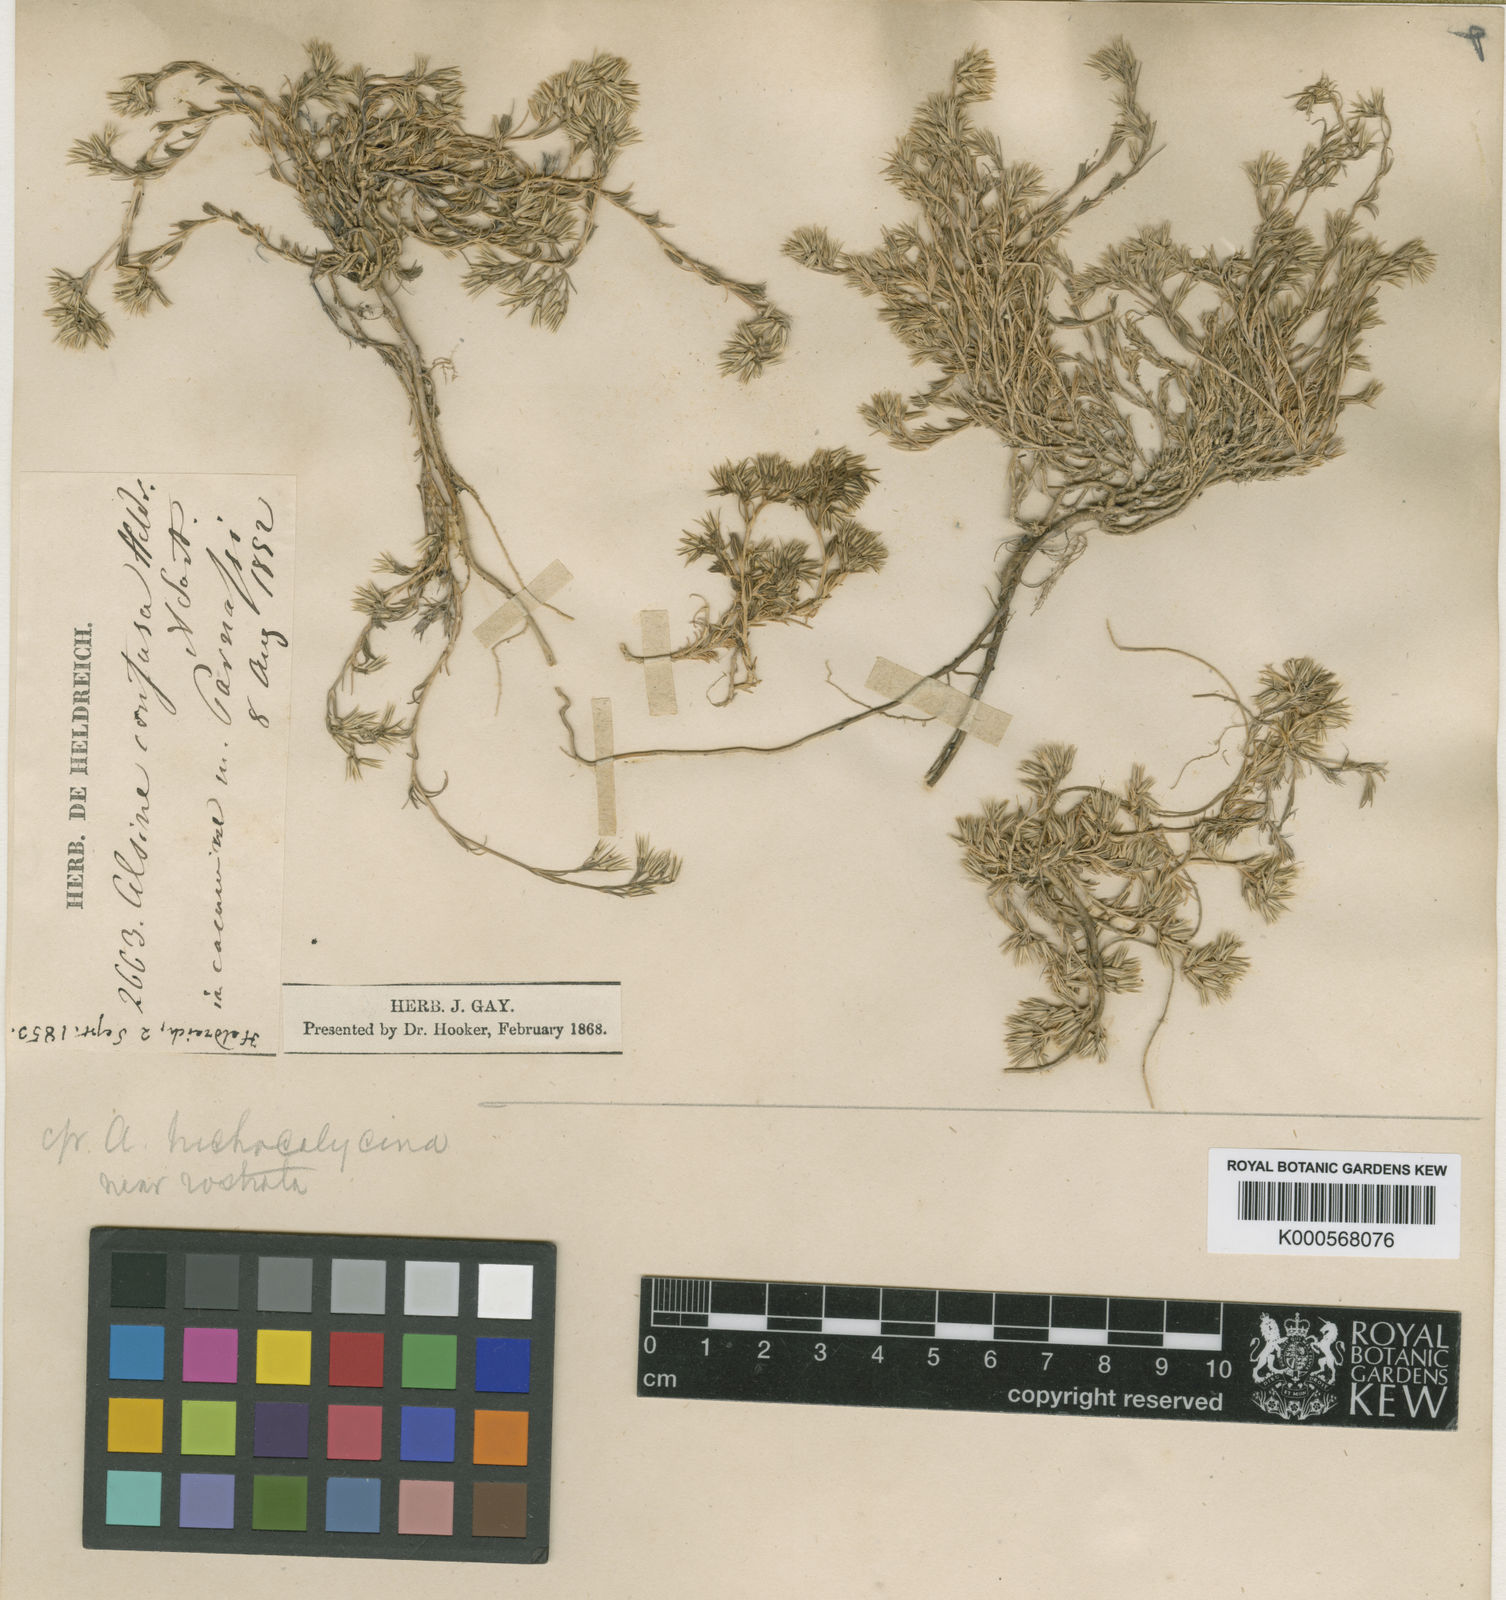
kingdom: Plantae
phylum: Tracheophyta
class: Magnoliopsida
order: Caryophyllales
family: Caryophyllaceae
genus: Minuartia
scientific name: Minuartia glomerata
